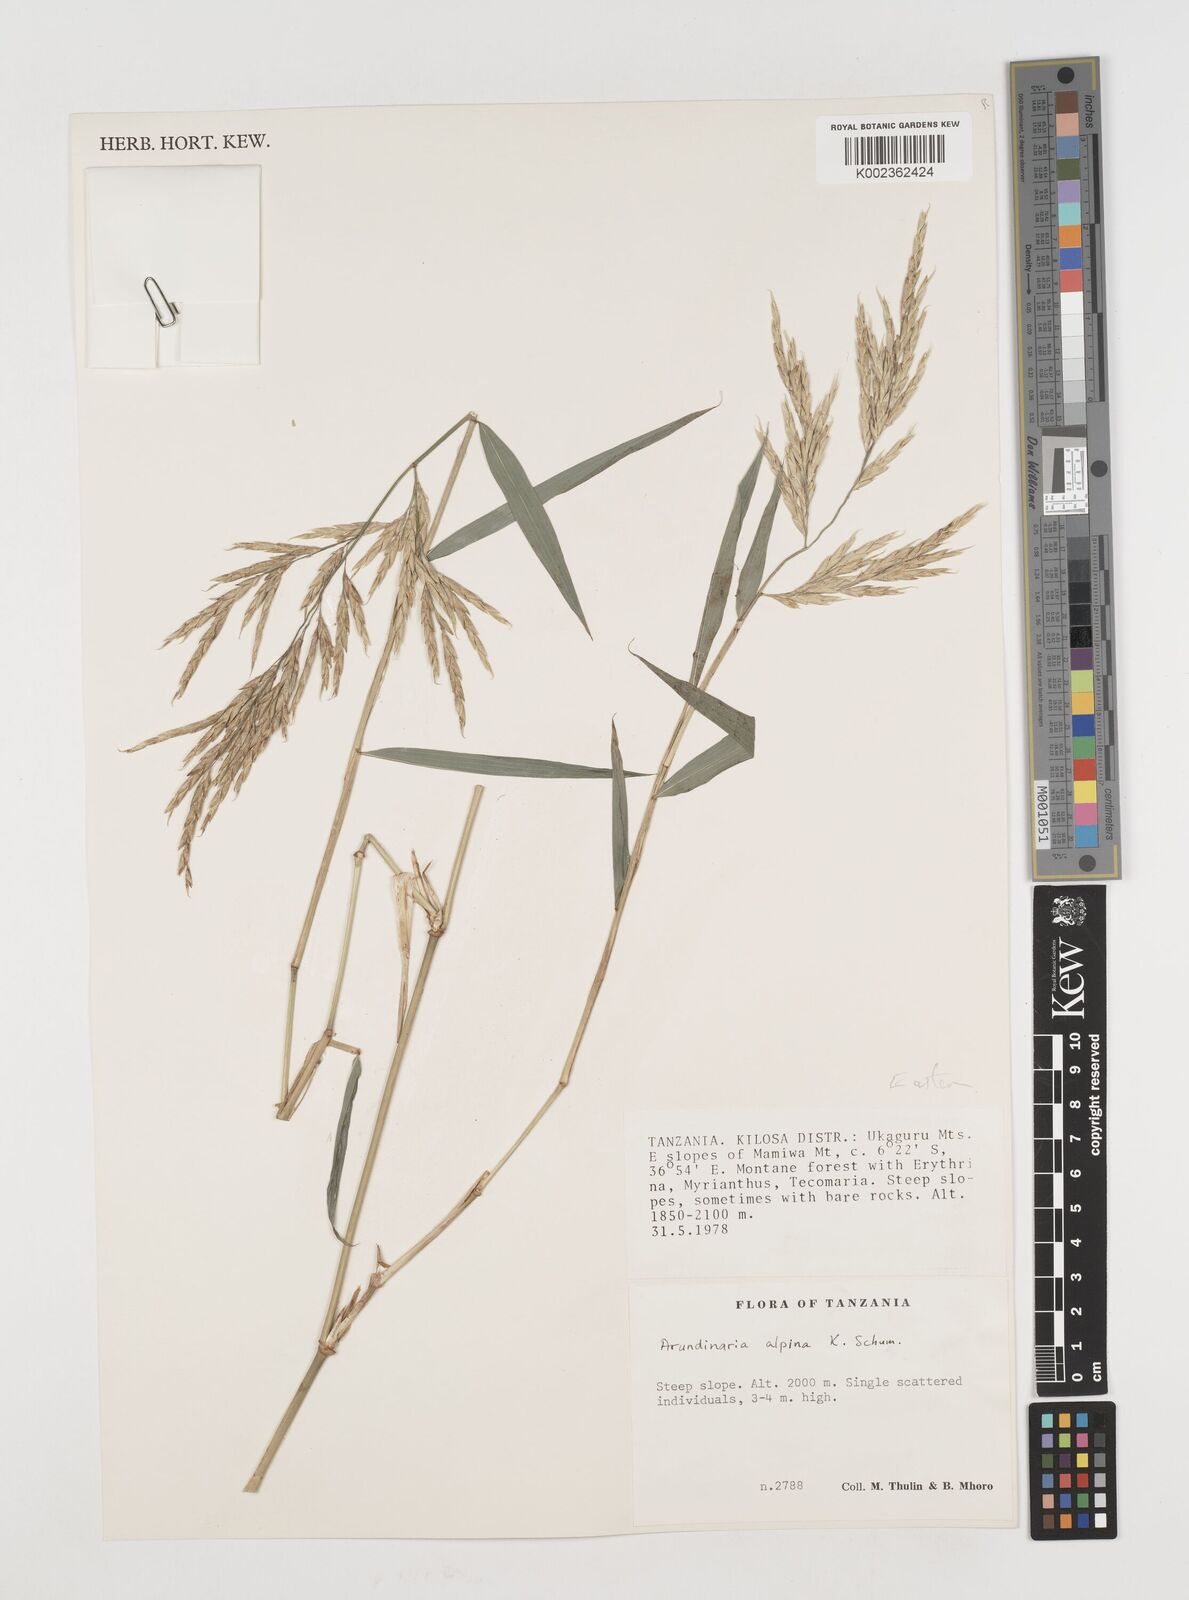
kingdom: Plantae
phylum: Tracheophyta
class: Liliopsida
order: Poales
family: Poaceae
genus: Oldeania
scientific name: Oldeania alpina
